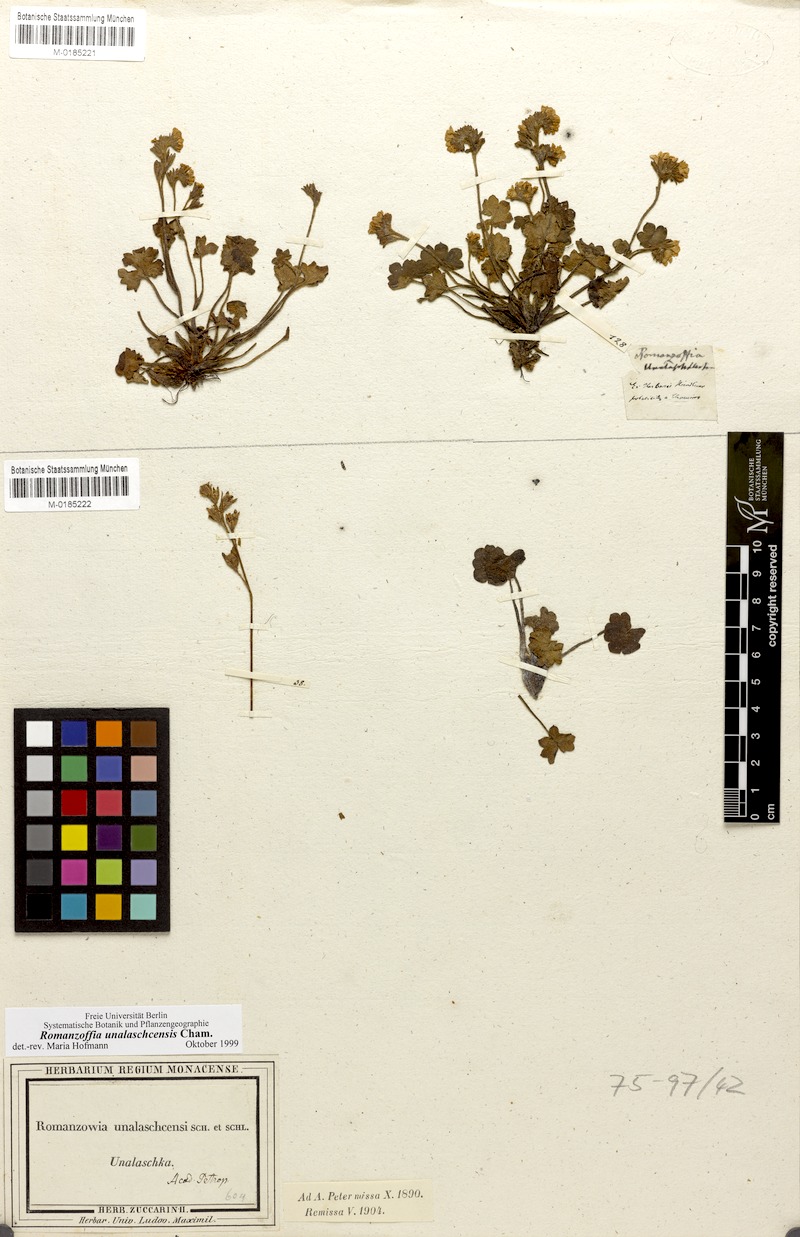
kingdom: Plantae
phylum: Tracheophyta
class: Magnoliopsida
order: Boraginales
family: Hydrophyllaceae
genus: Romanzoffia
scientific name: Romanzoffia unalaschcensis
